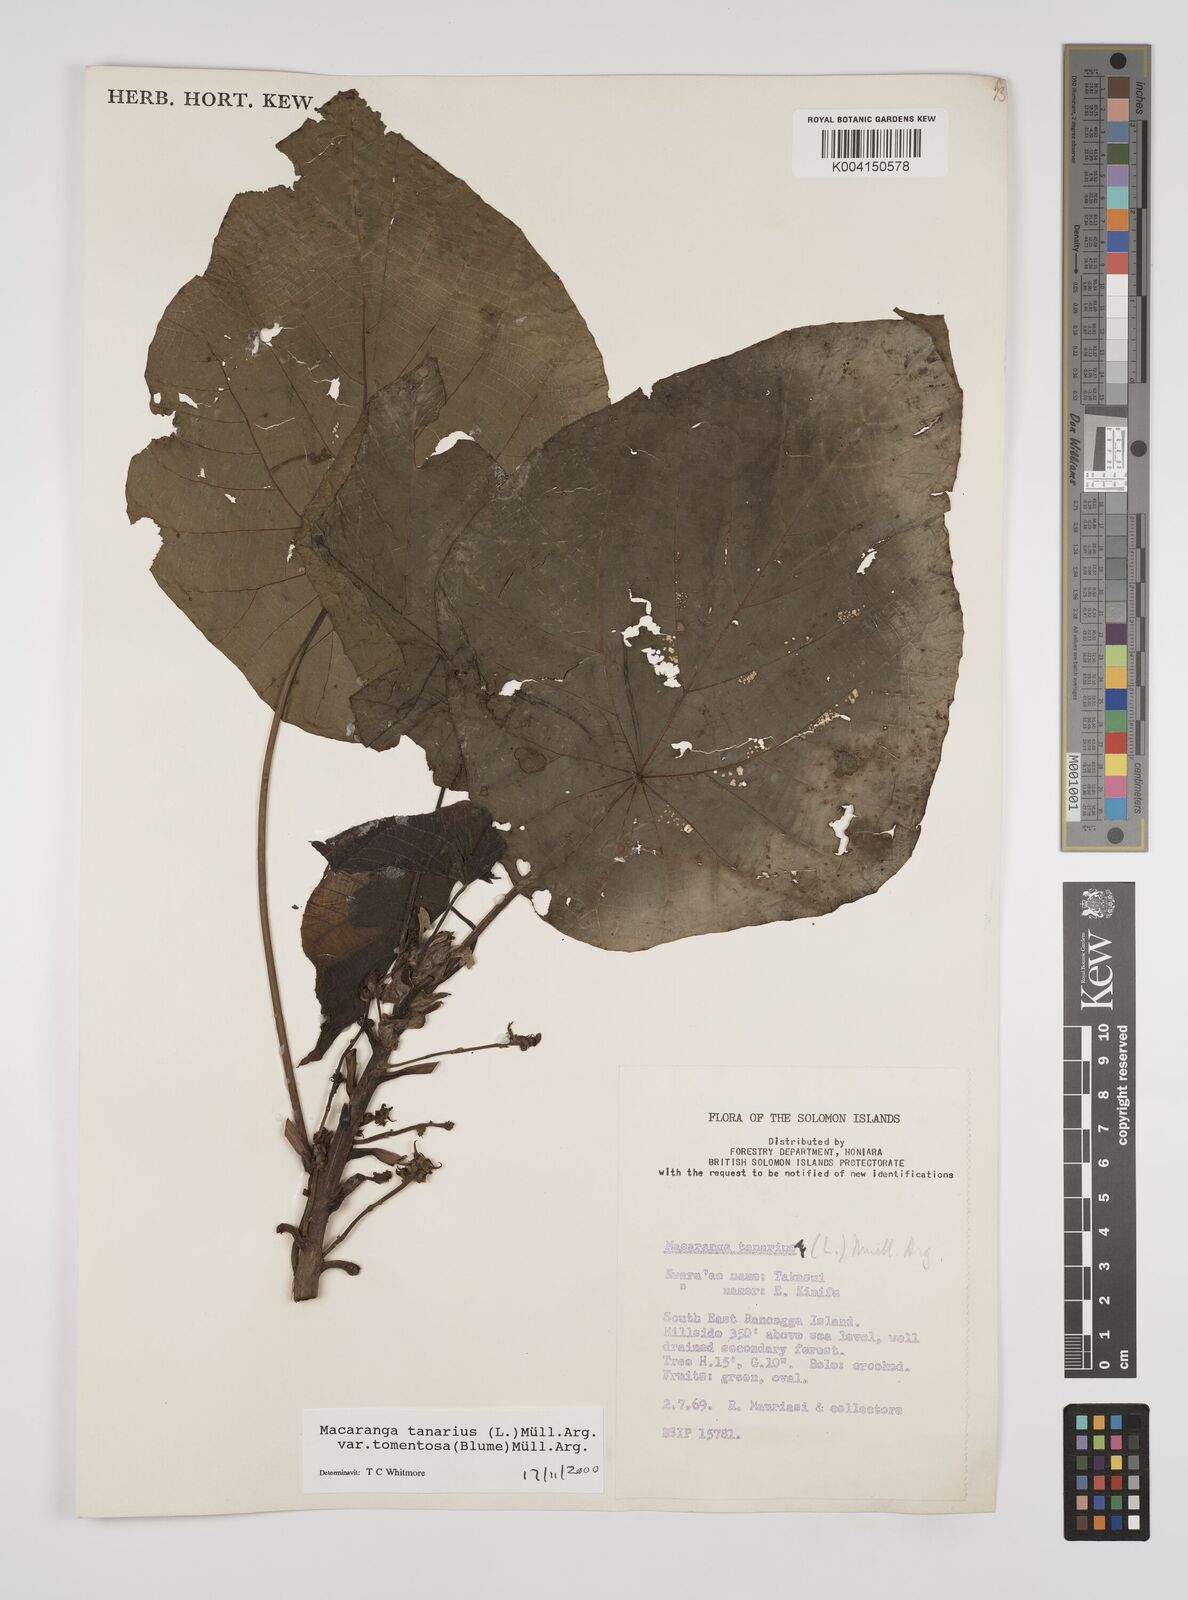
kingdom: Plantae
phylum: Tracheophyta
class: Magnoliopsida
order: Malpighiales
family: Euphorbiaceae
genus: Macaranga
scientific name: Macaranga tanarius
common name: Parasol leaf tree
